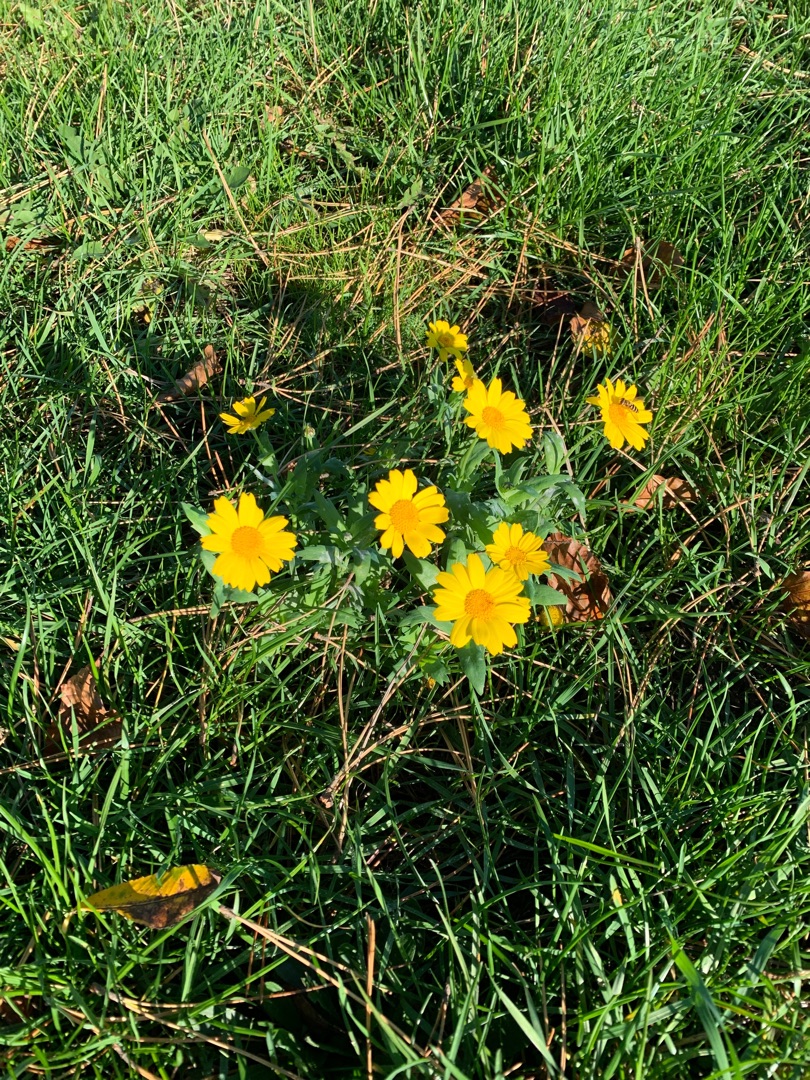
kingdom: Plantae
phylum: Tracheophyta
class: Magnoliopsida
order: Asterales
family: Asteraceae
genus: Glebionis
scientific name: Glebionis segetum
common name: Gul okseøje
